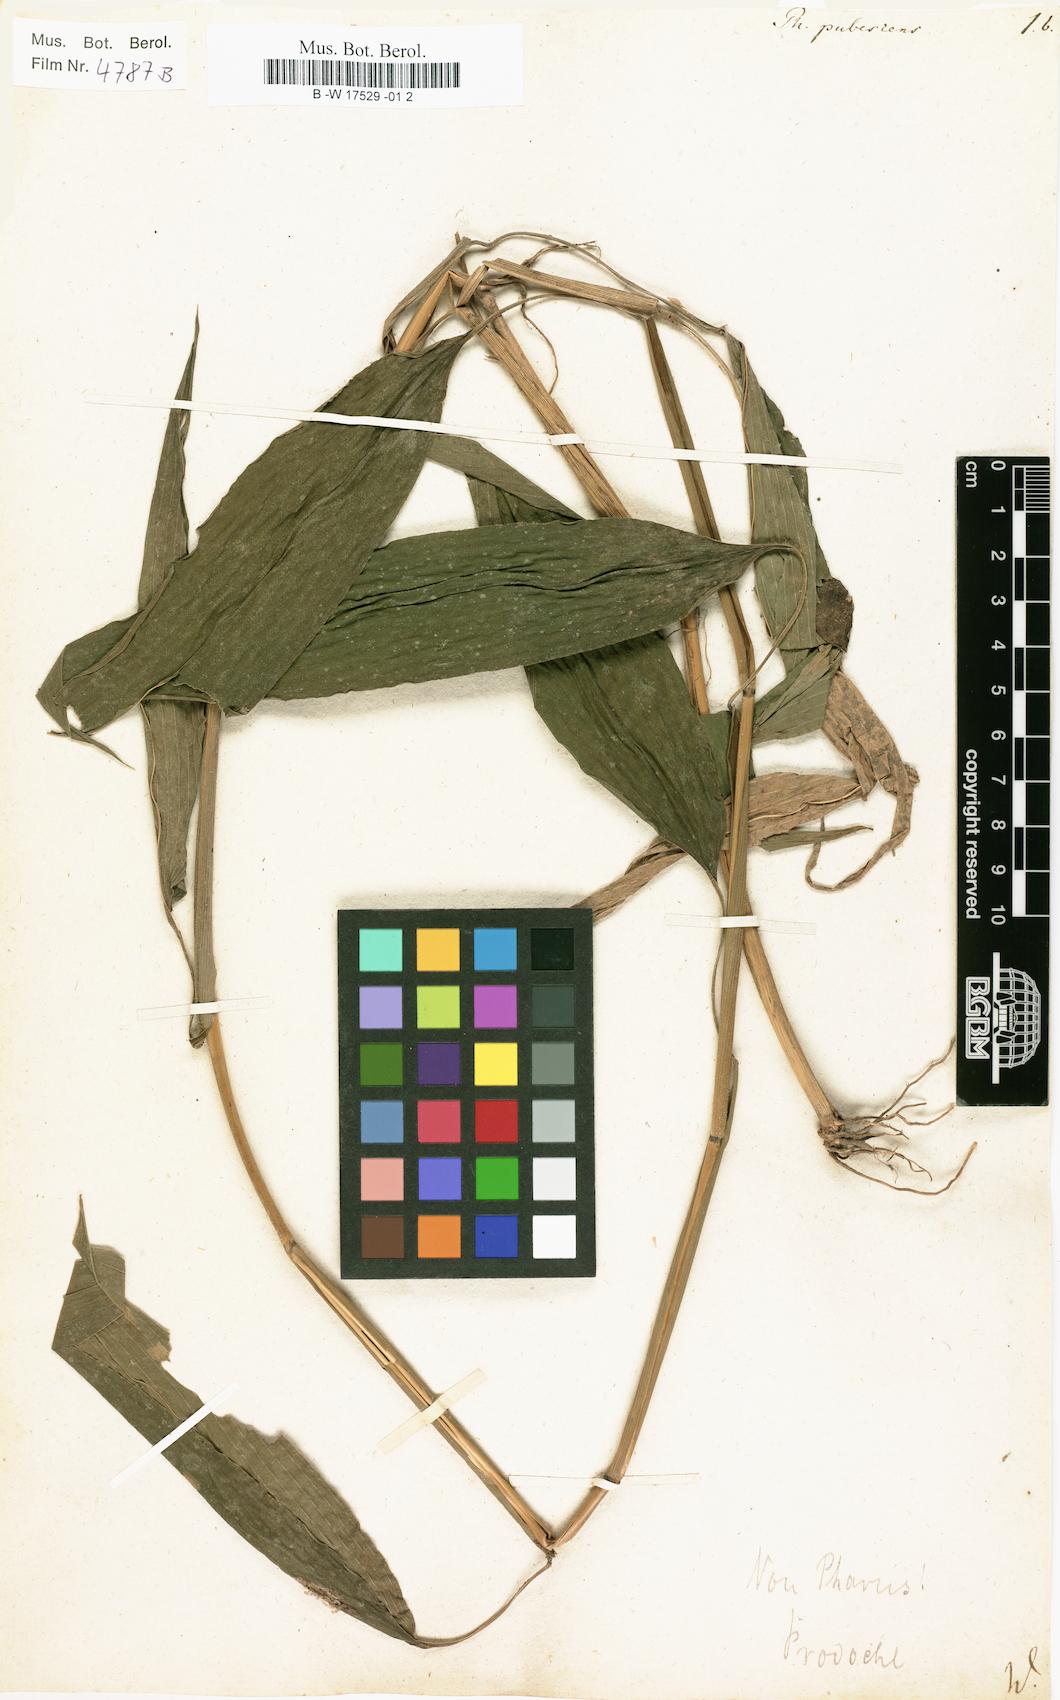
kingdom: Plantae
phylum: Tracheophyta
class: Liliopsida
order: Poales
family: Poaceae
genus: Pharus
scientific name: Pharus lappulaceus
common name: Creeping leafstalk grass
